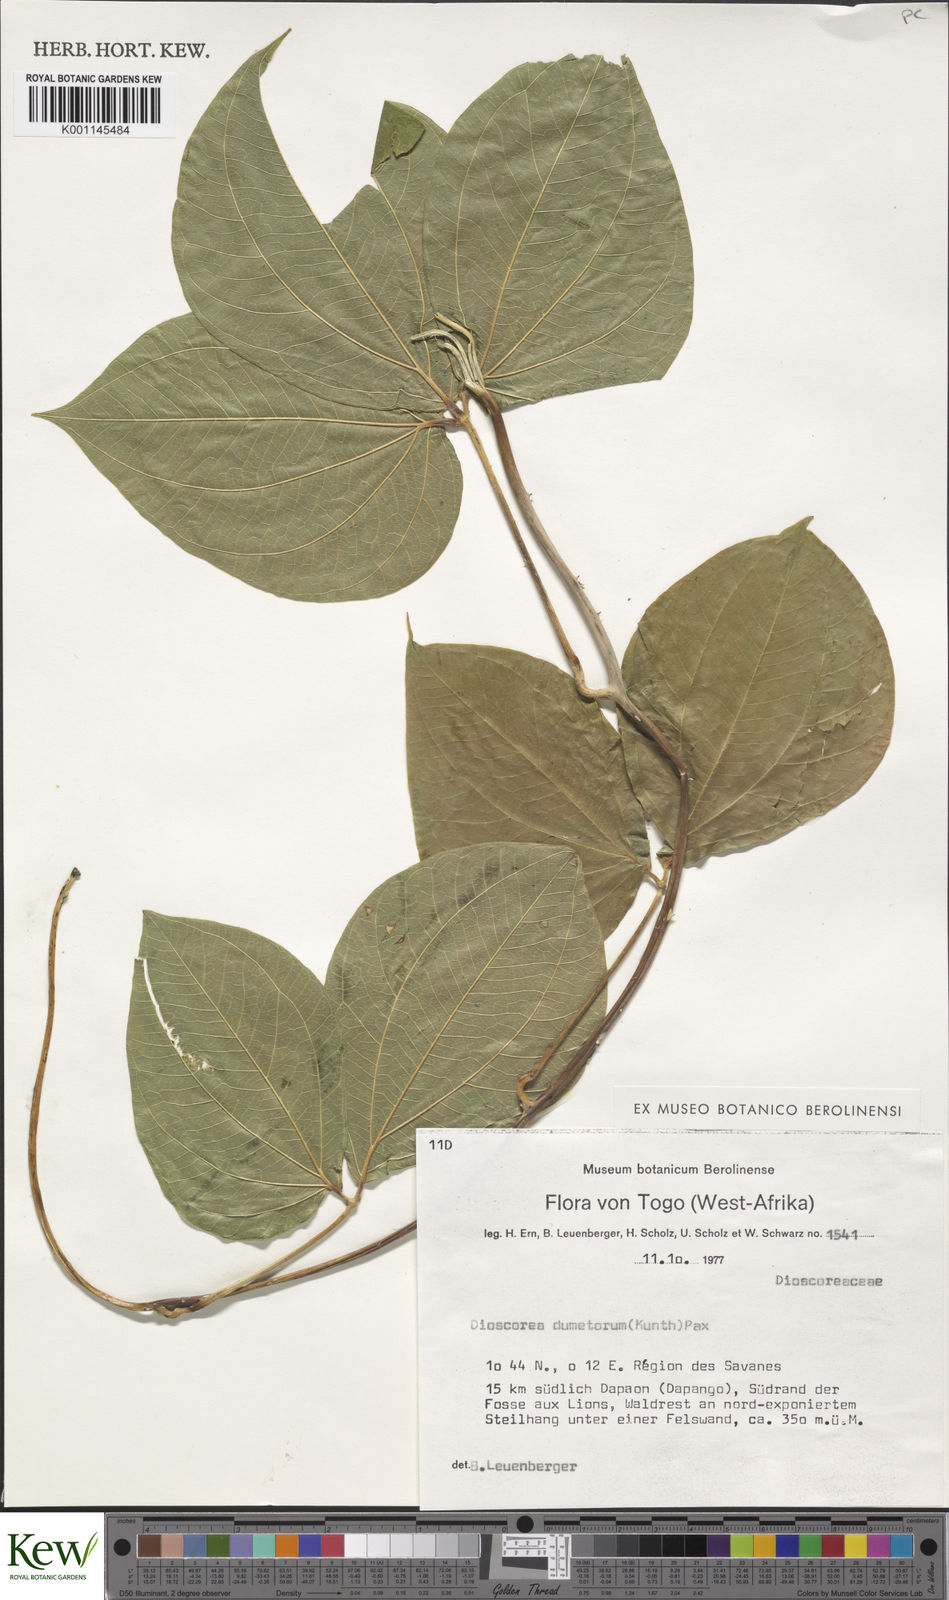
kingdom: Plantae
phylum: Tracheophyta
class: Liliopsida
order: Dioscoreales
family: Dioscoreaceae
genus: Dioscorea
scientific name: Dioscorea dumetorum
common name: African bitter yam
